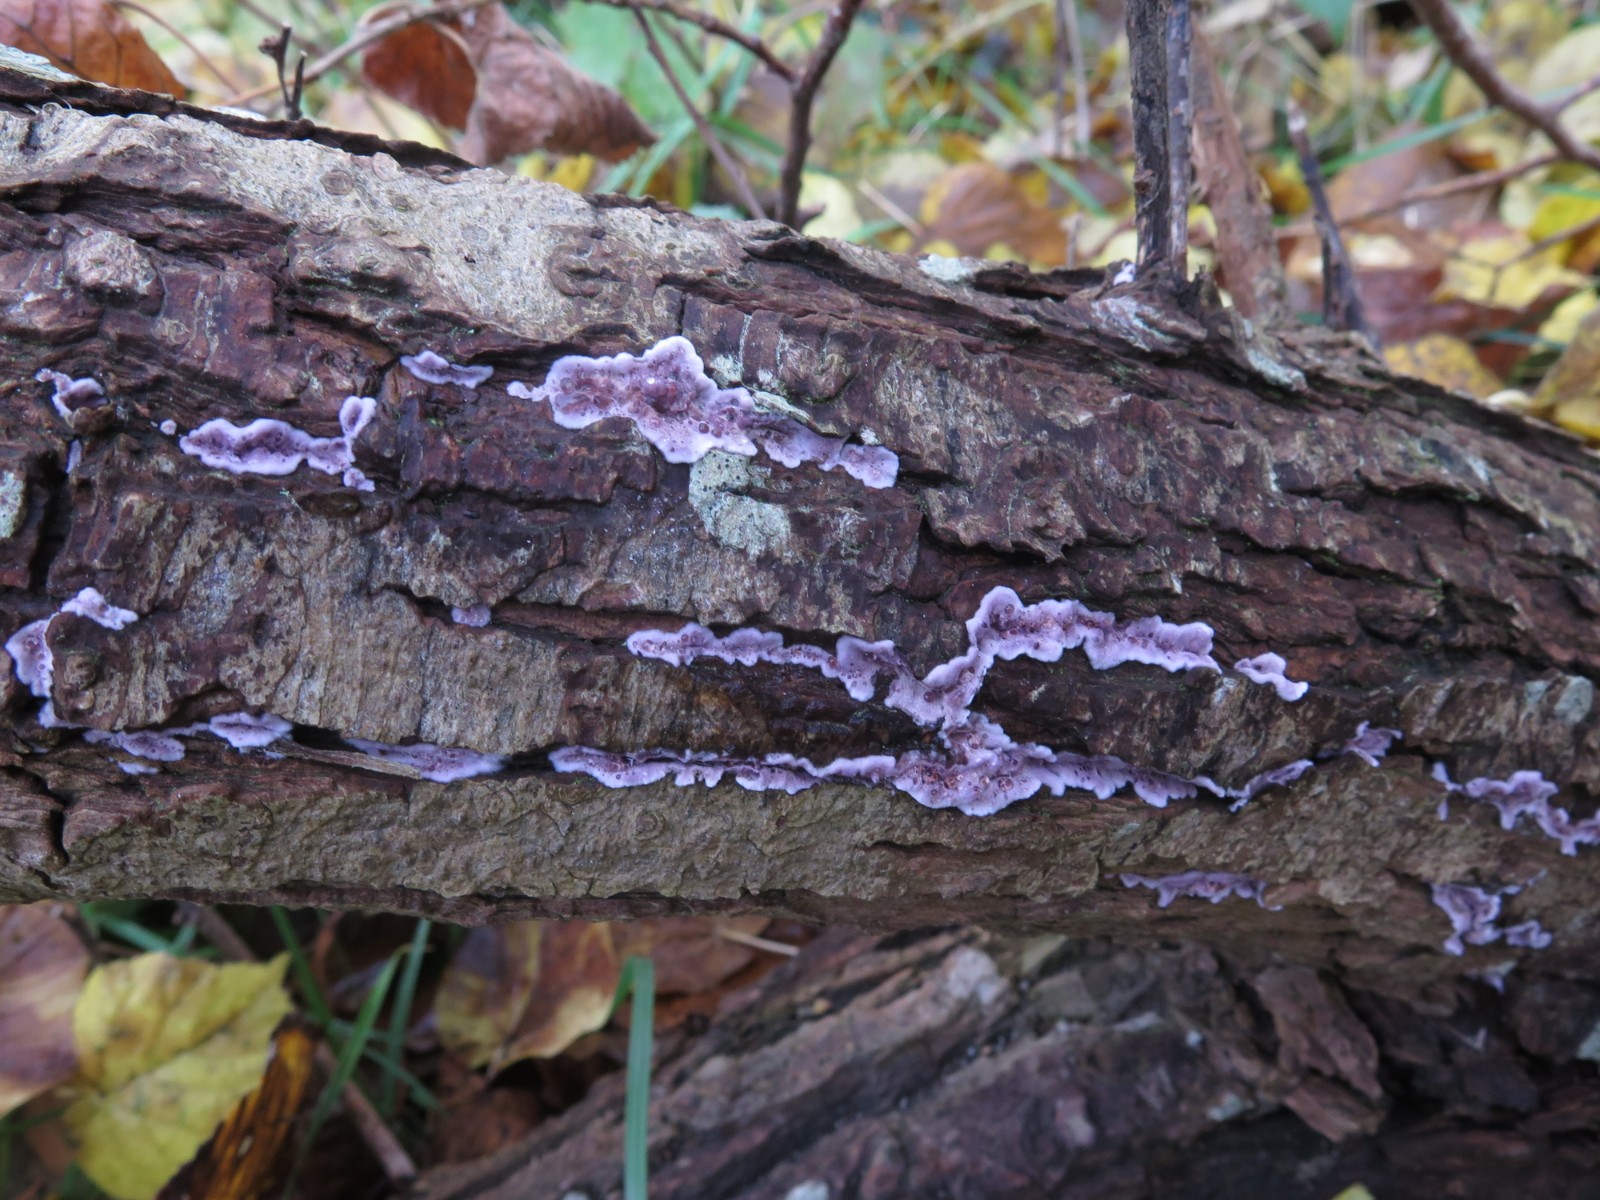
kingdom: Fungi
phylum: Basidiomycota
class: Agaricomycetes
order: Agaricales
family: Cyphellaceae
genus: Chondrostereum
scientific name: Chondrostereum purpureum
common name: purpurlædersvamp
